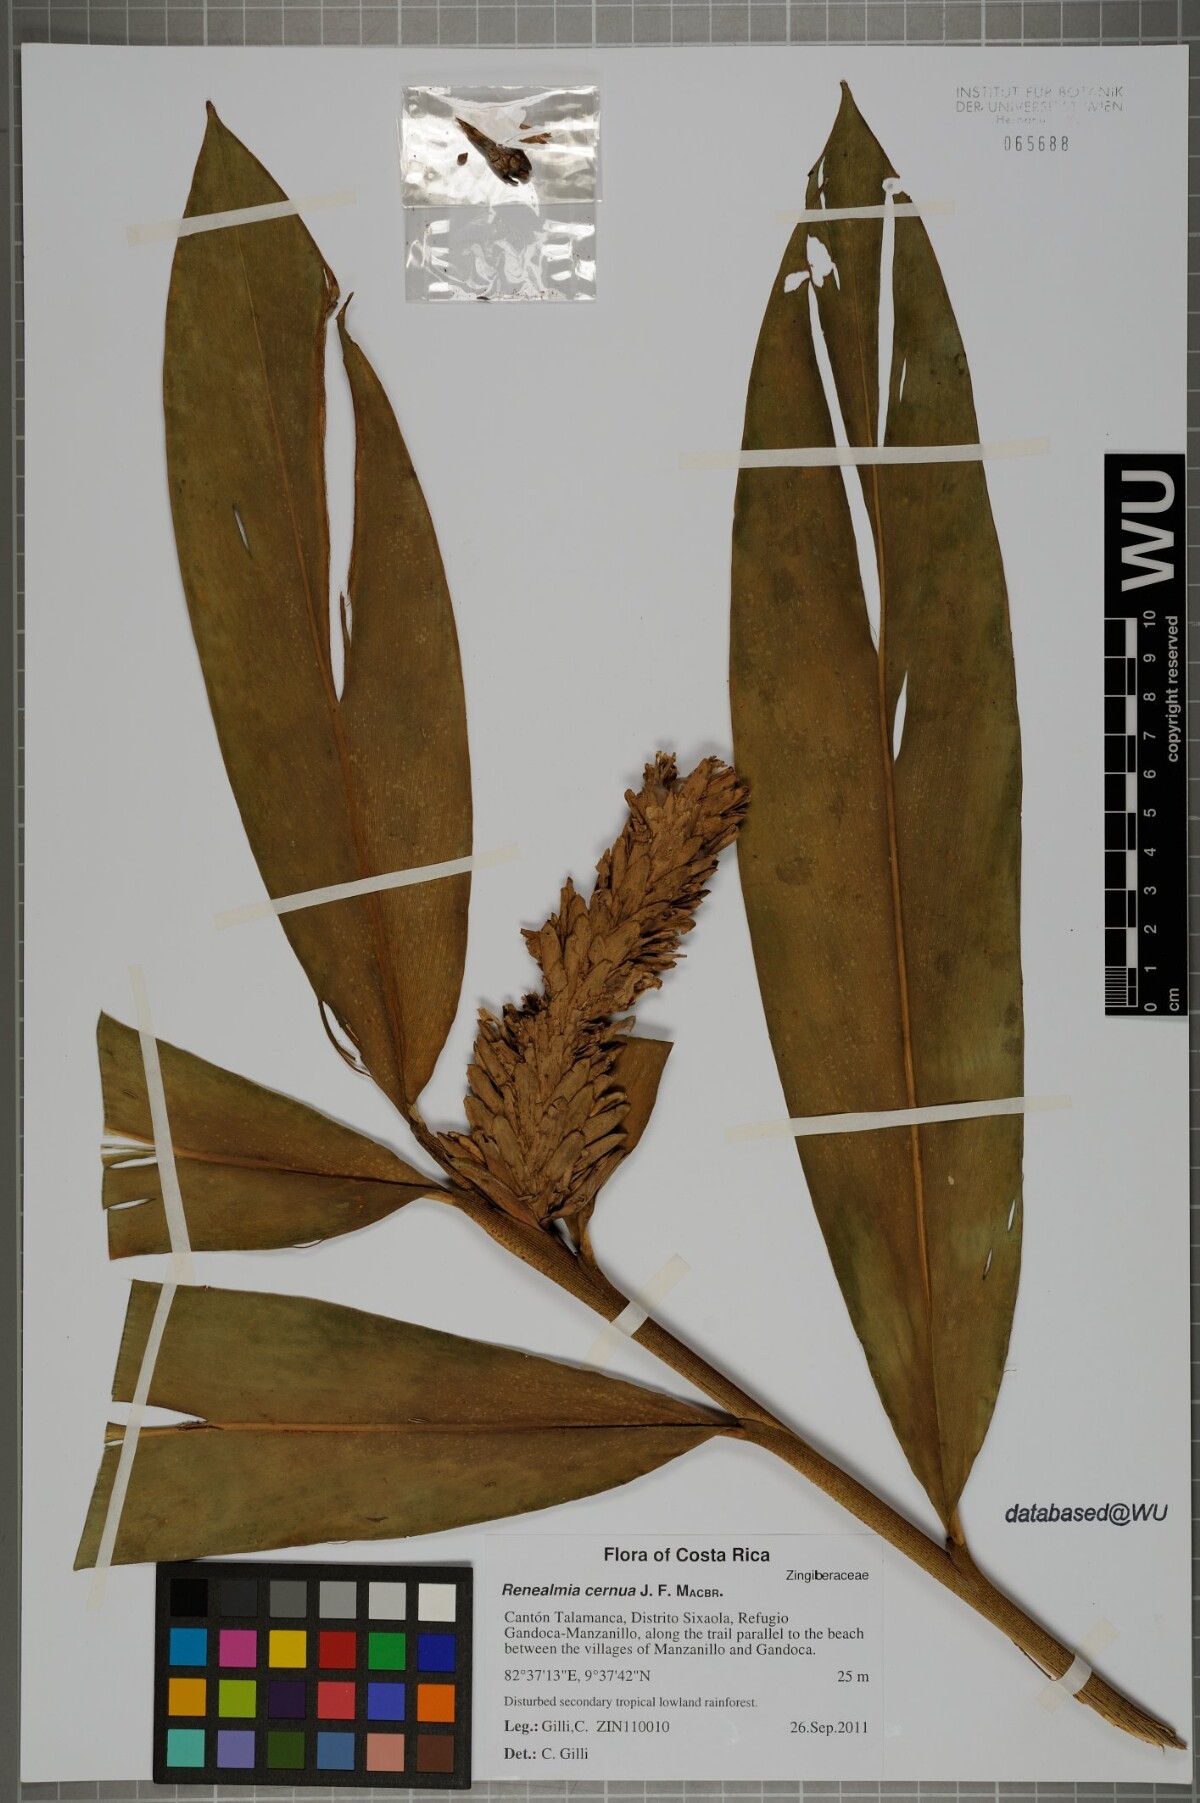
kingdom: Plantae
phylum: Tracheophyta
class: Liliopsida
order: Zingiberales
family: Zingiberaceae
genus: Renealmia
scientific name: Renealmia cernua
